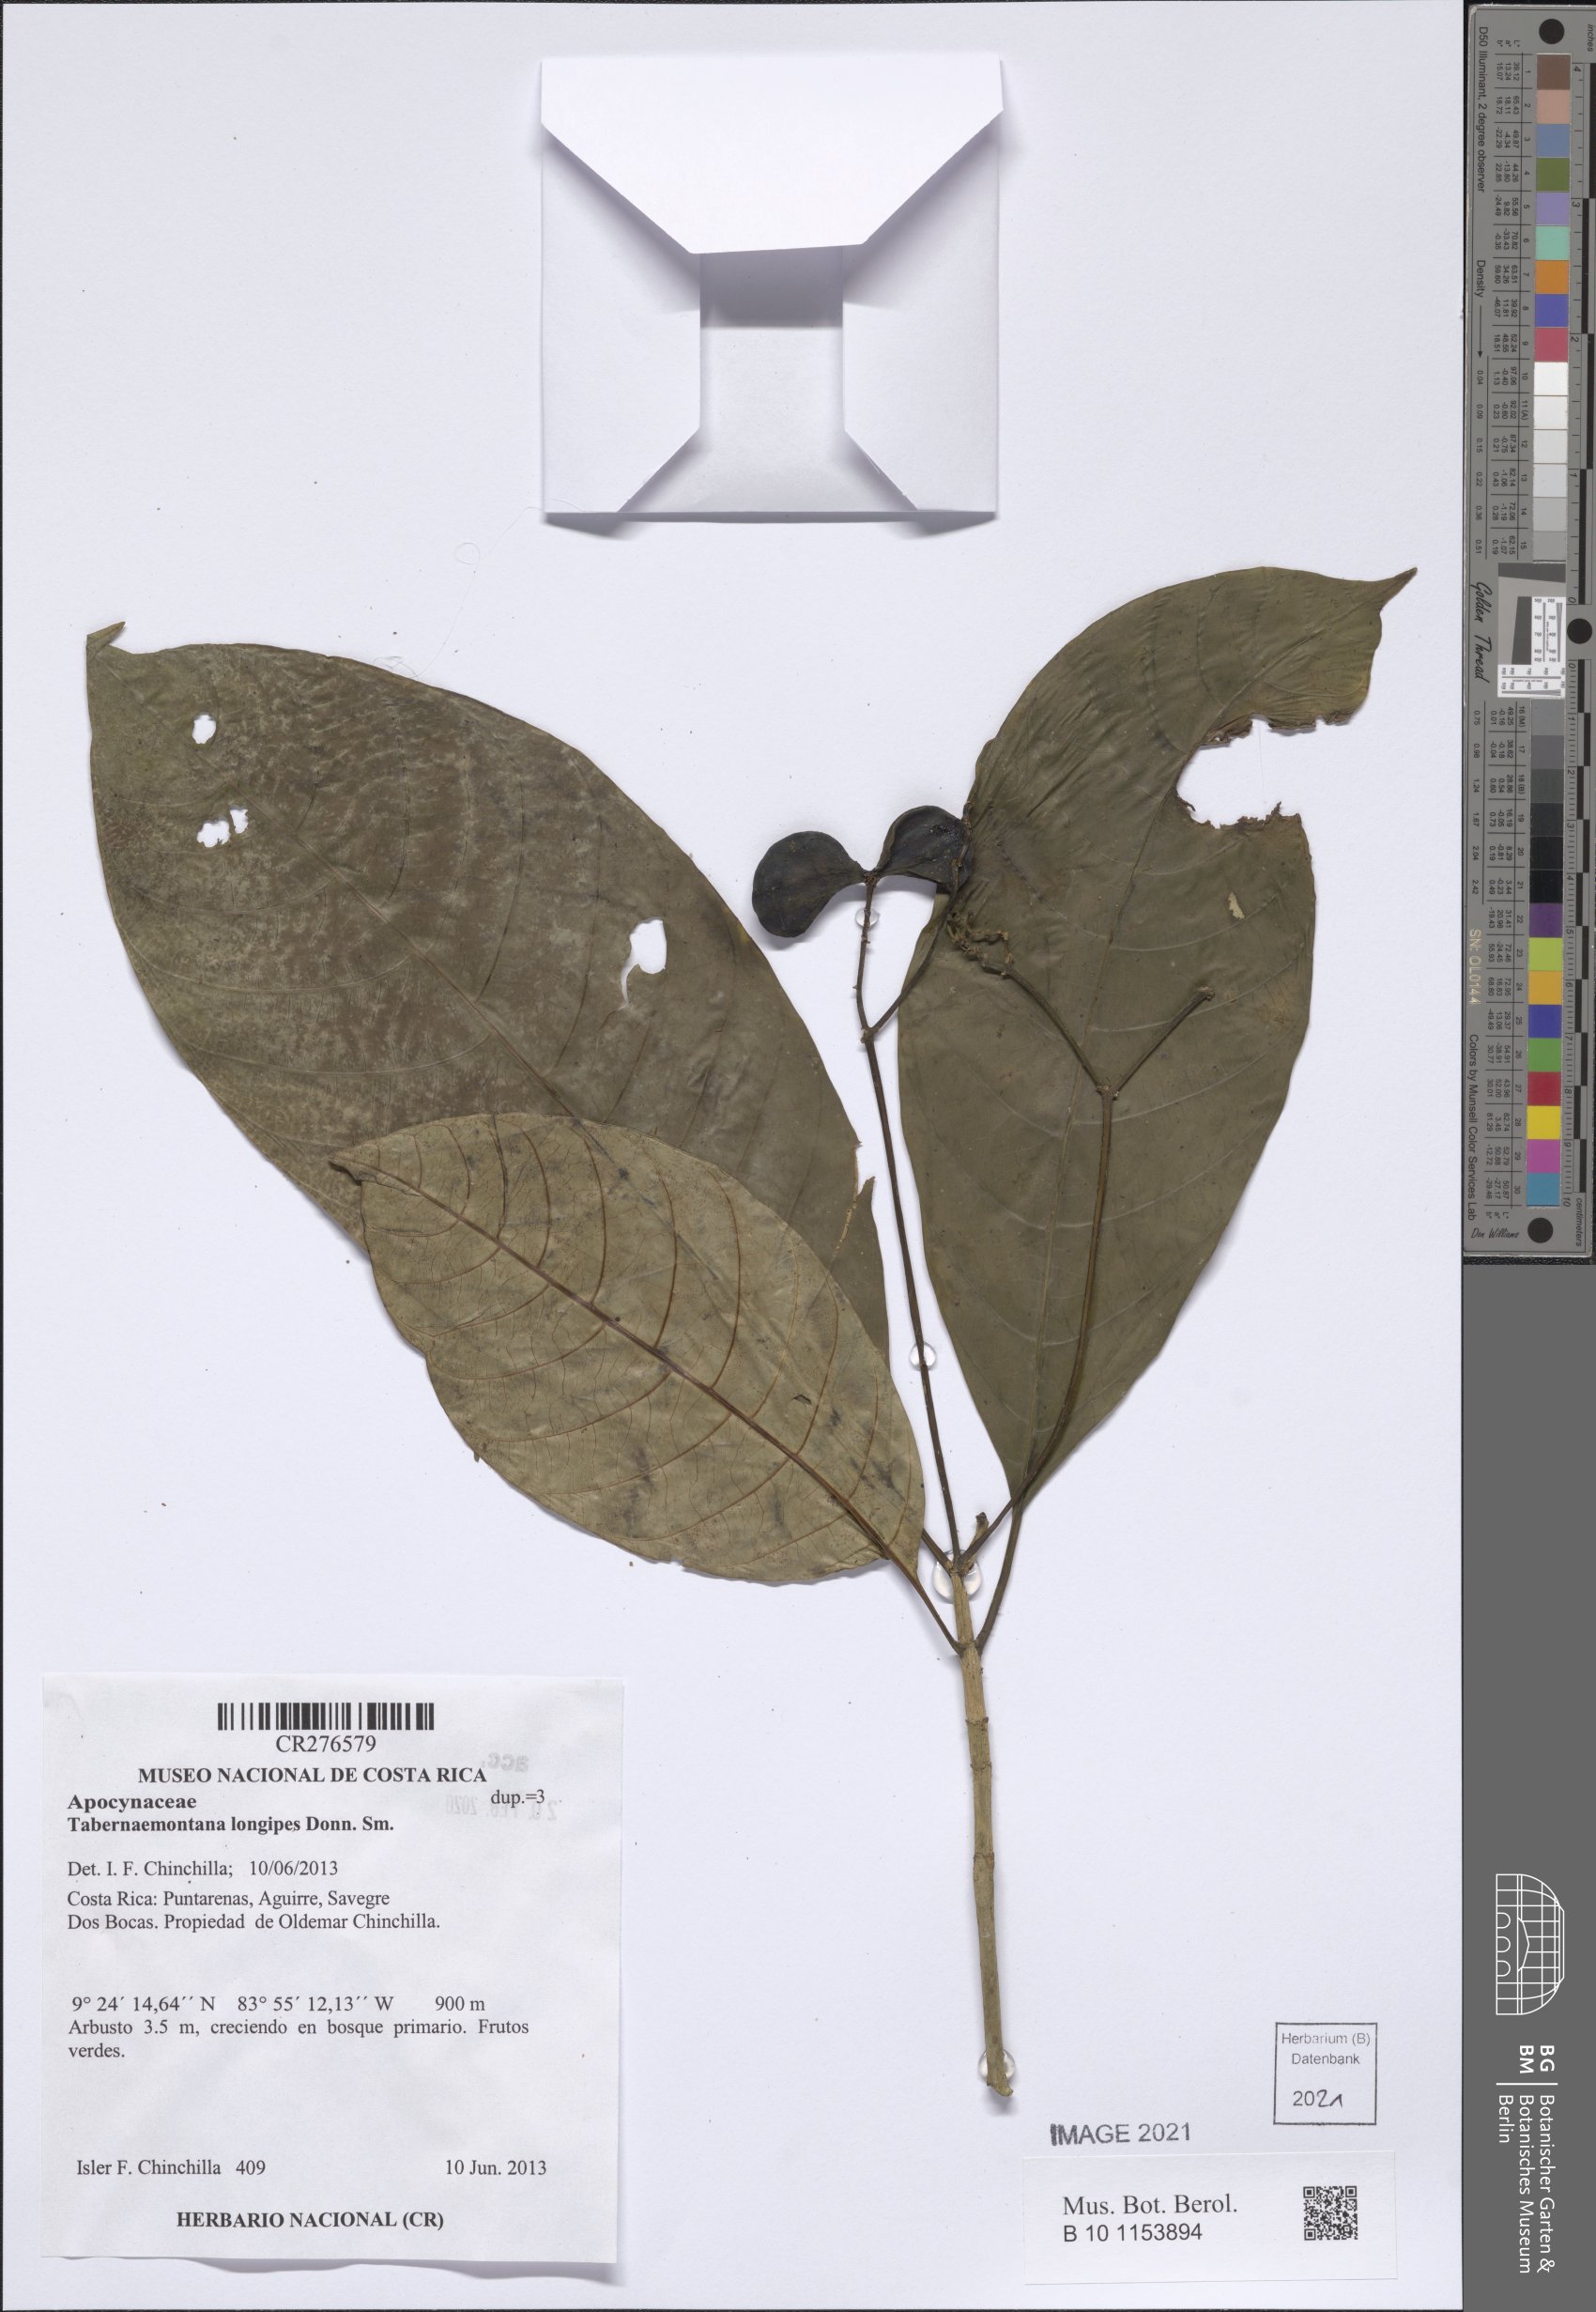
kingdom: Plantae
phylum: Tracheophyta
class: Magnoliopsida
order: Gentianales
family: Apocynaceae
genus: Tabernaemontana
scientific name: Tabernaemontana longipes
